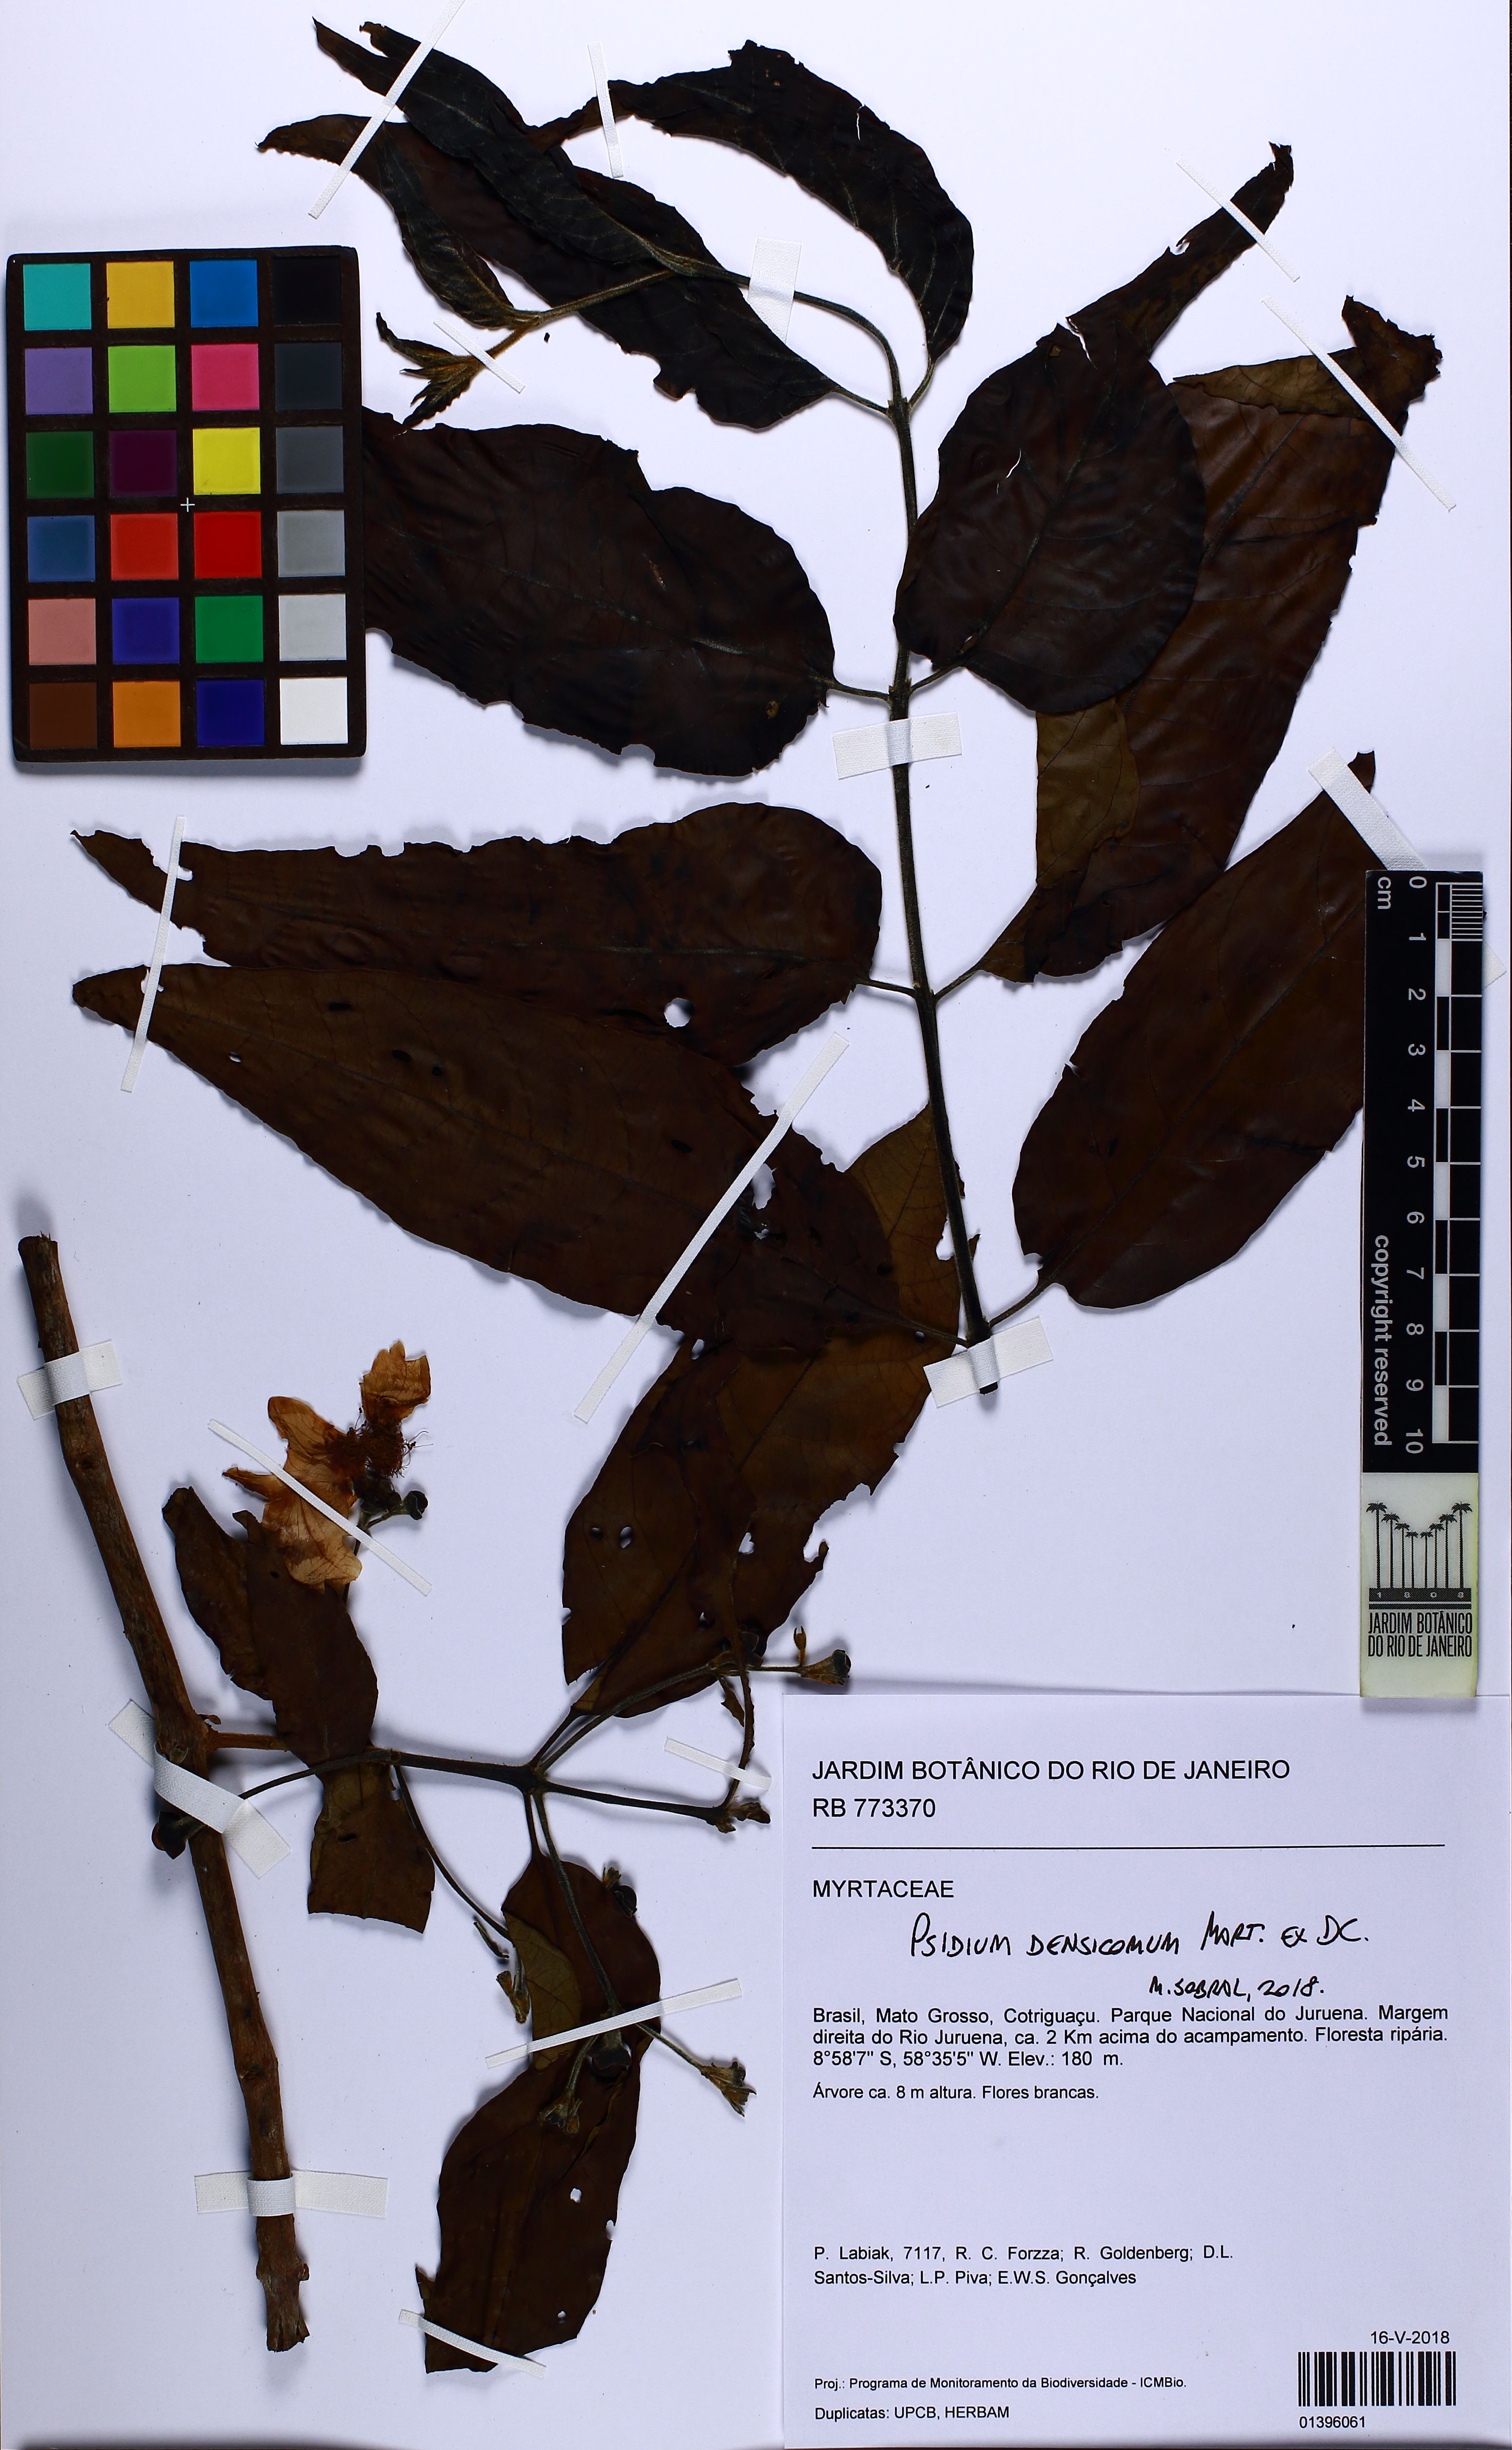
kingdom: Plantae
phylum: Tracheophyta
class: Magnoliopsida
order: Myrtales
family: Myrtaceae
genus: Psidium
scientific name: Psidium densicomum
